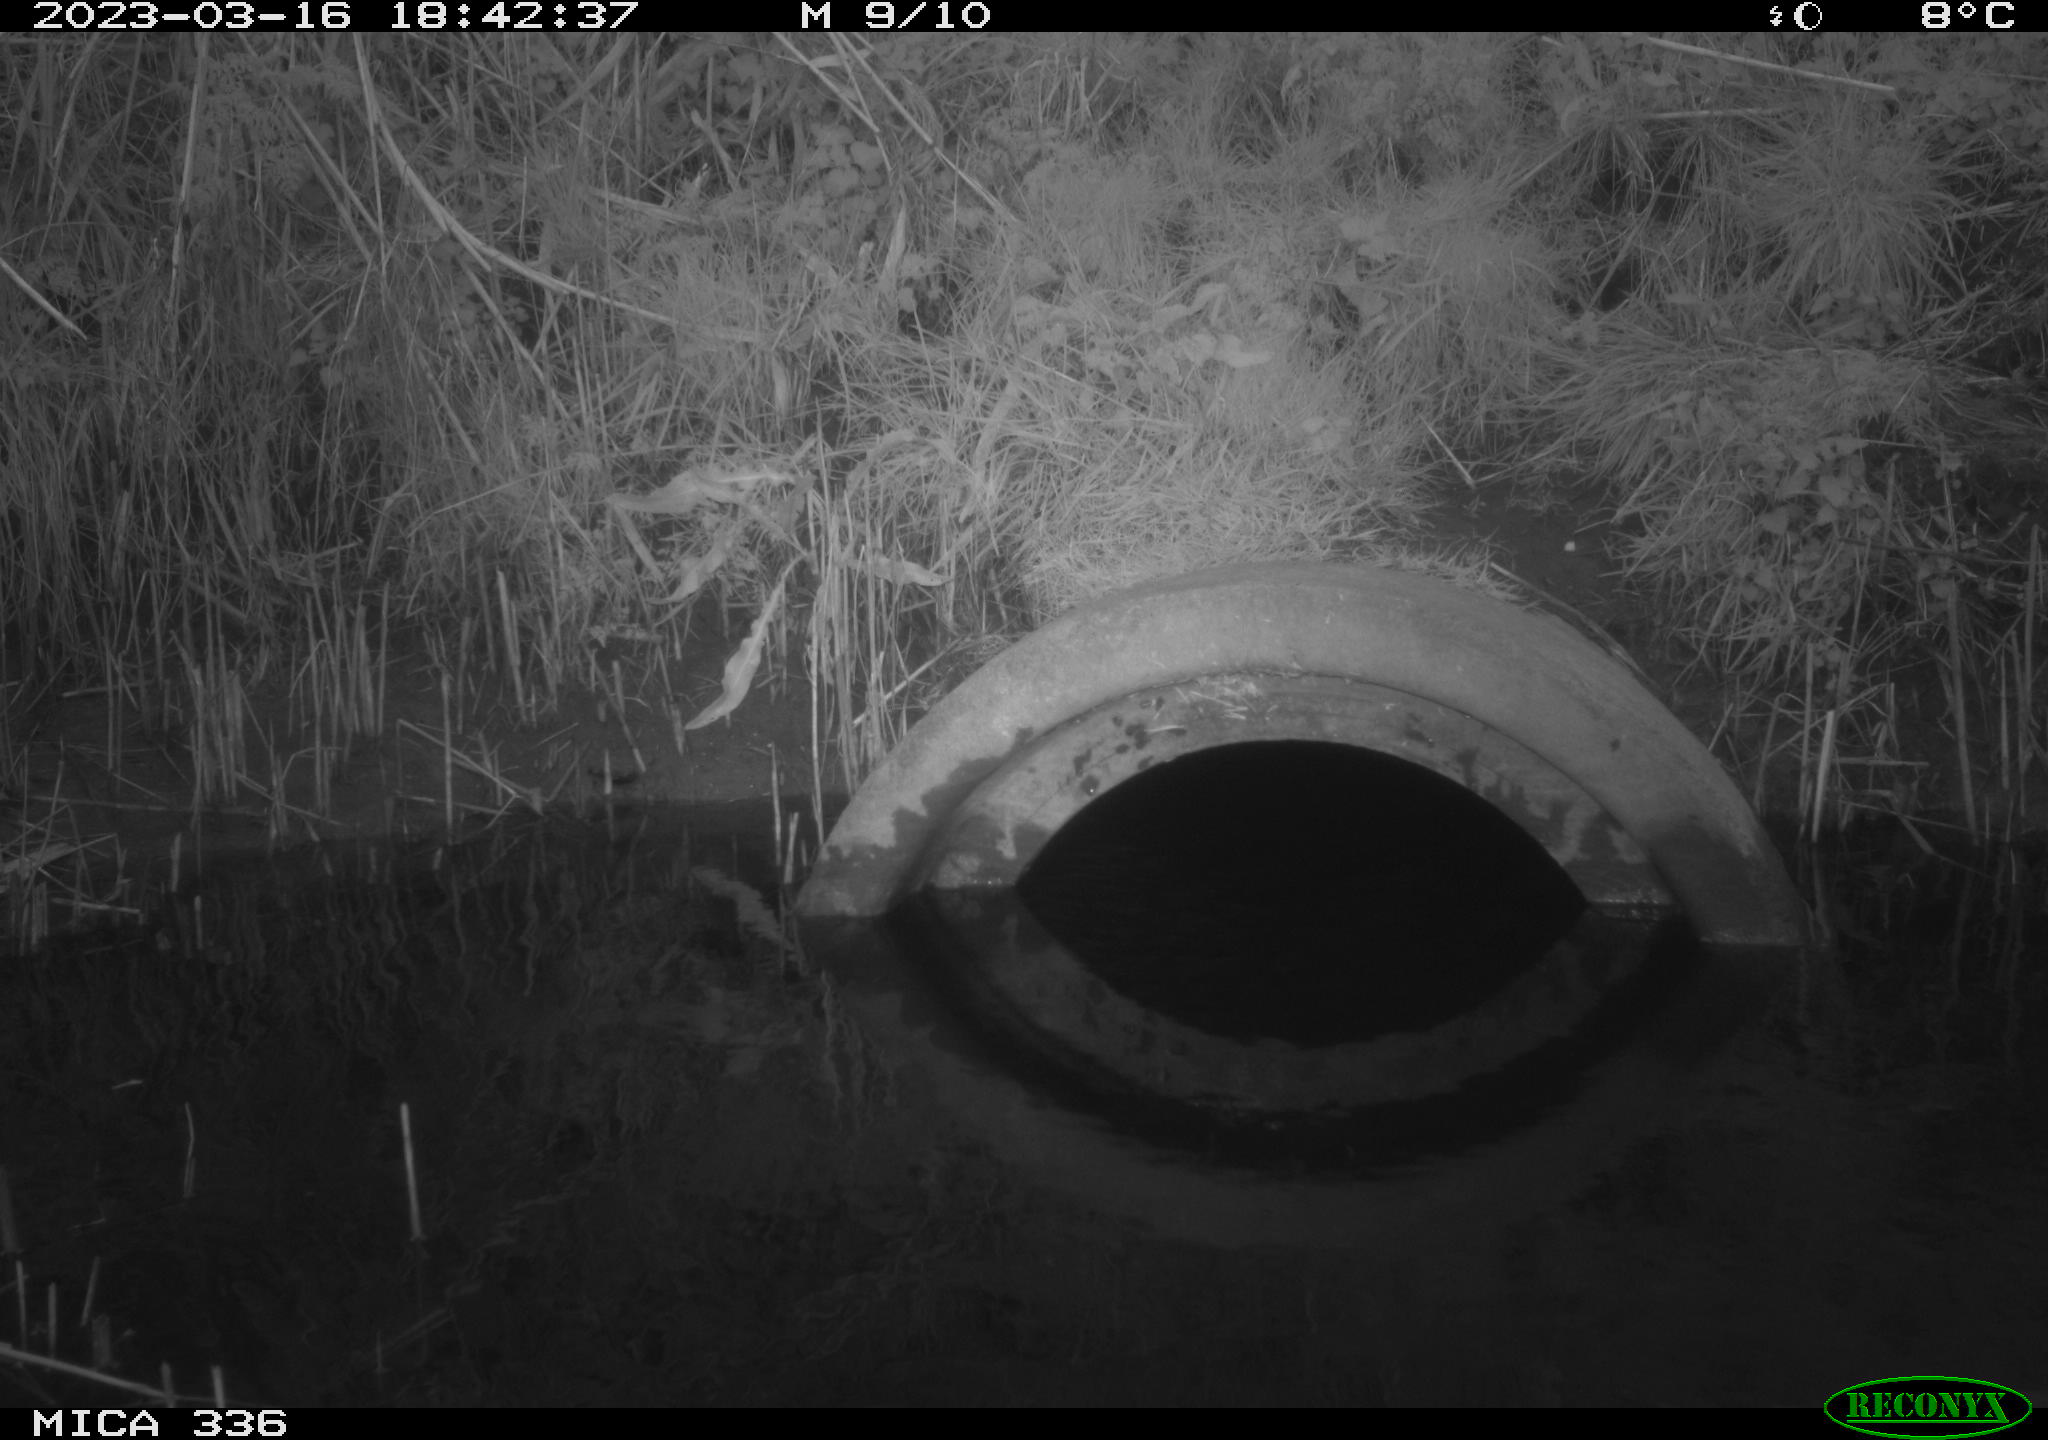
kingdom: Animalia
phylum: Chordata
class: Aves
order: Pelecaniformes
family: Ardeidae
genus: Ardea
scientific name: Ardea cinerea
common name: Grey heron
